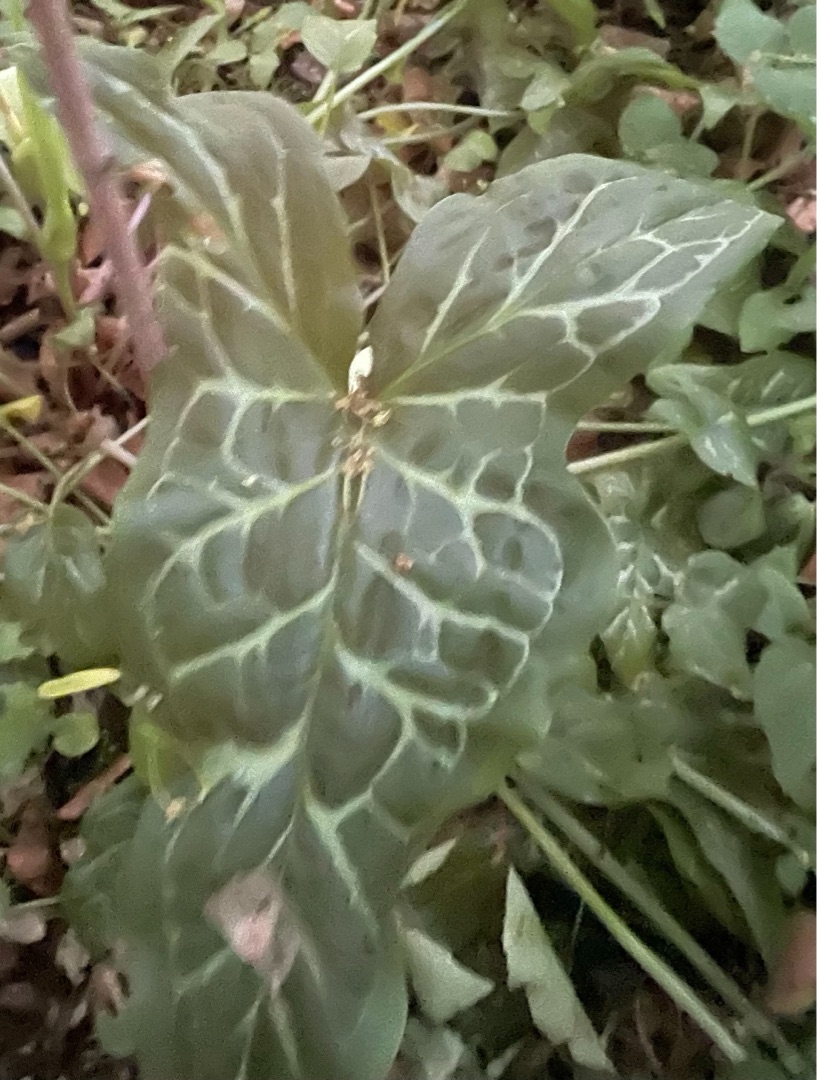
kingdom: Plantae
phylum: Tracheophyta
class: Liliopsida
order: Alismatales
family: Araceae
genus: Arum
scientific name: Arum italicum
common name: Italiensk arum
